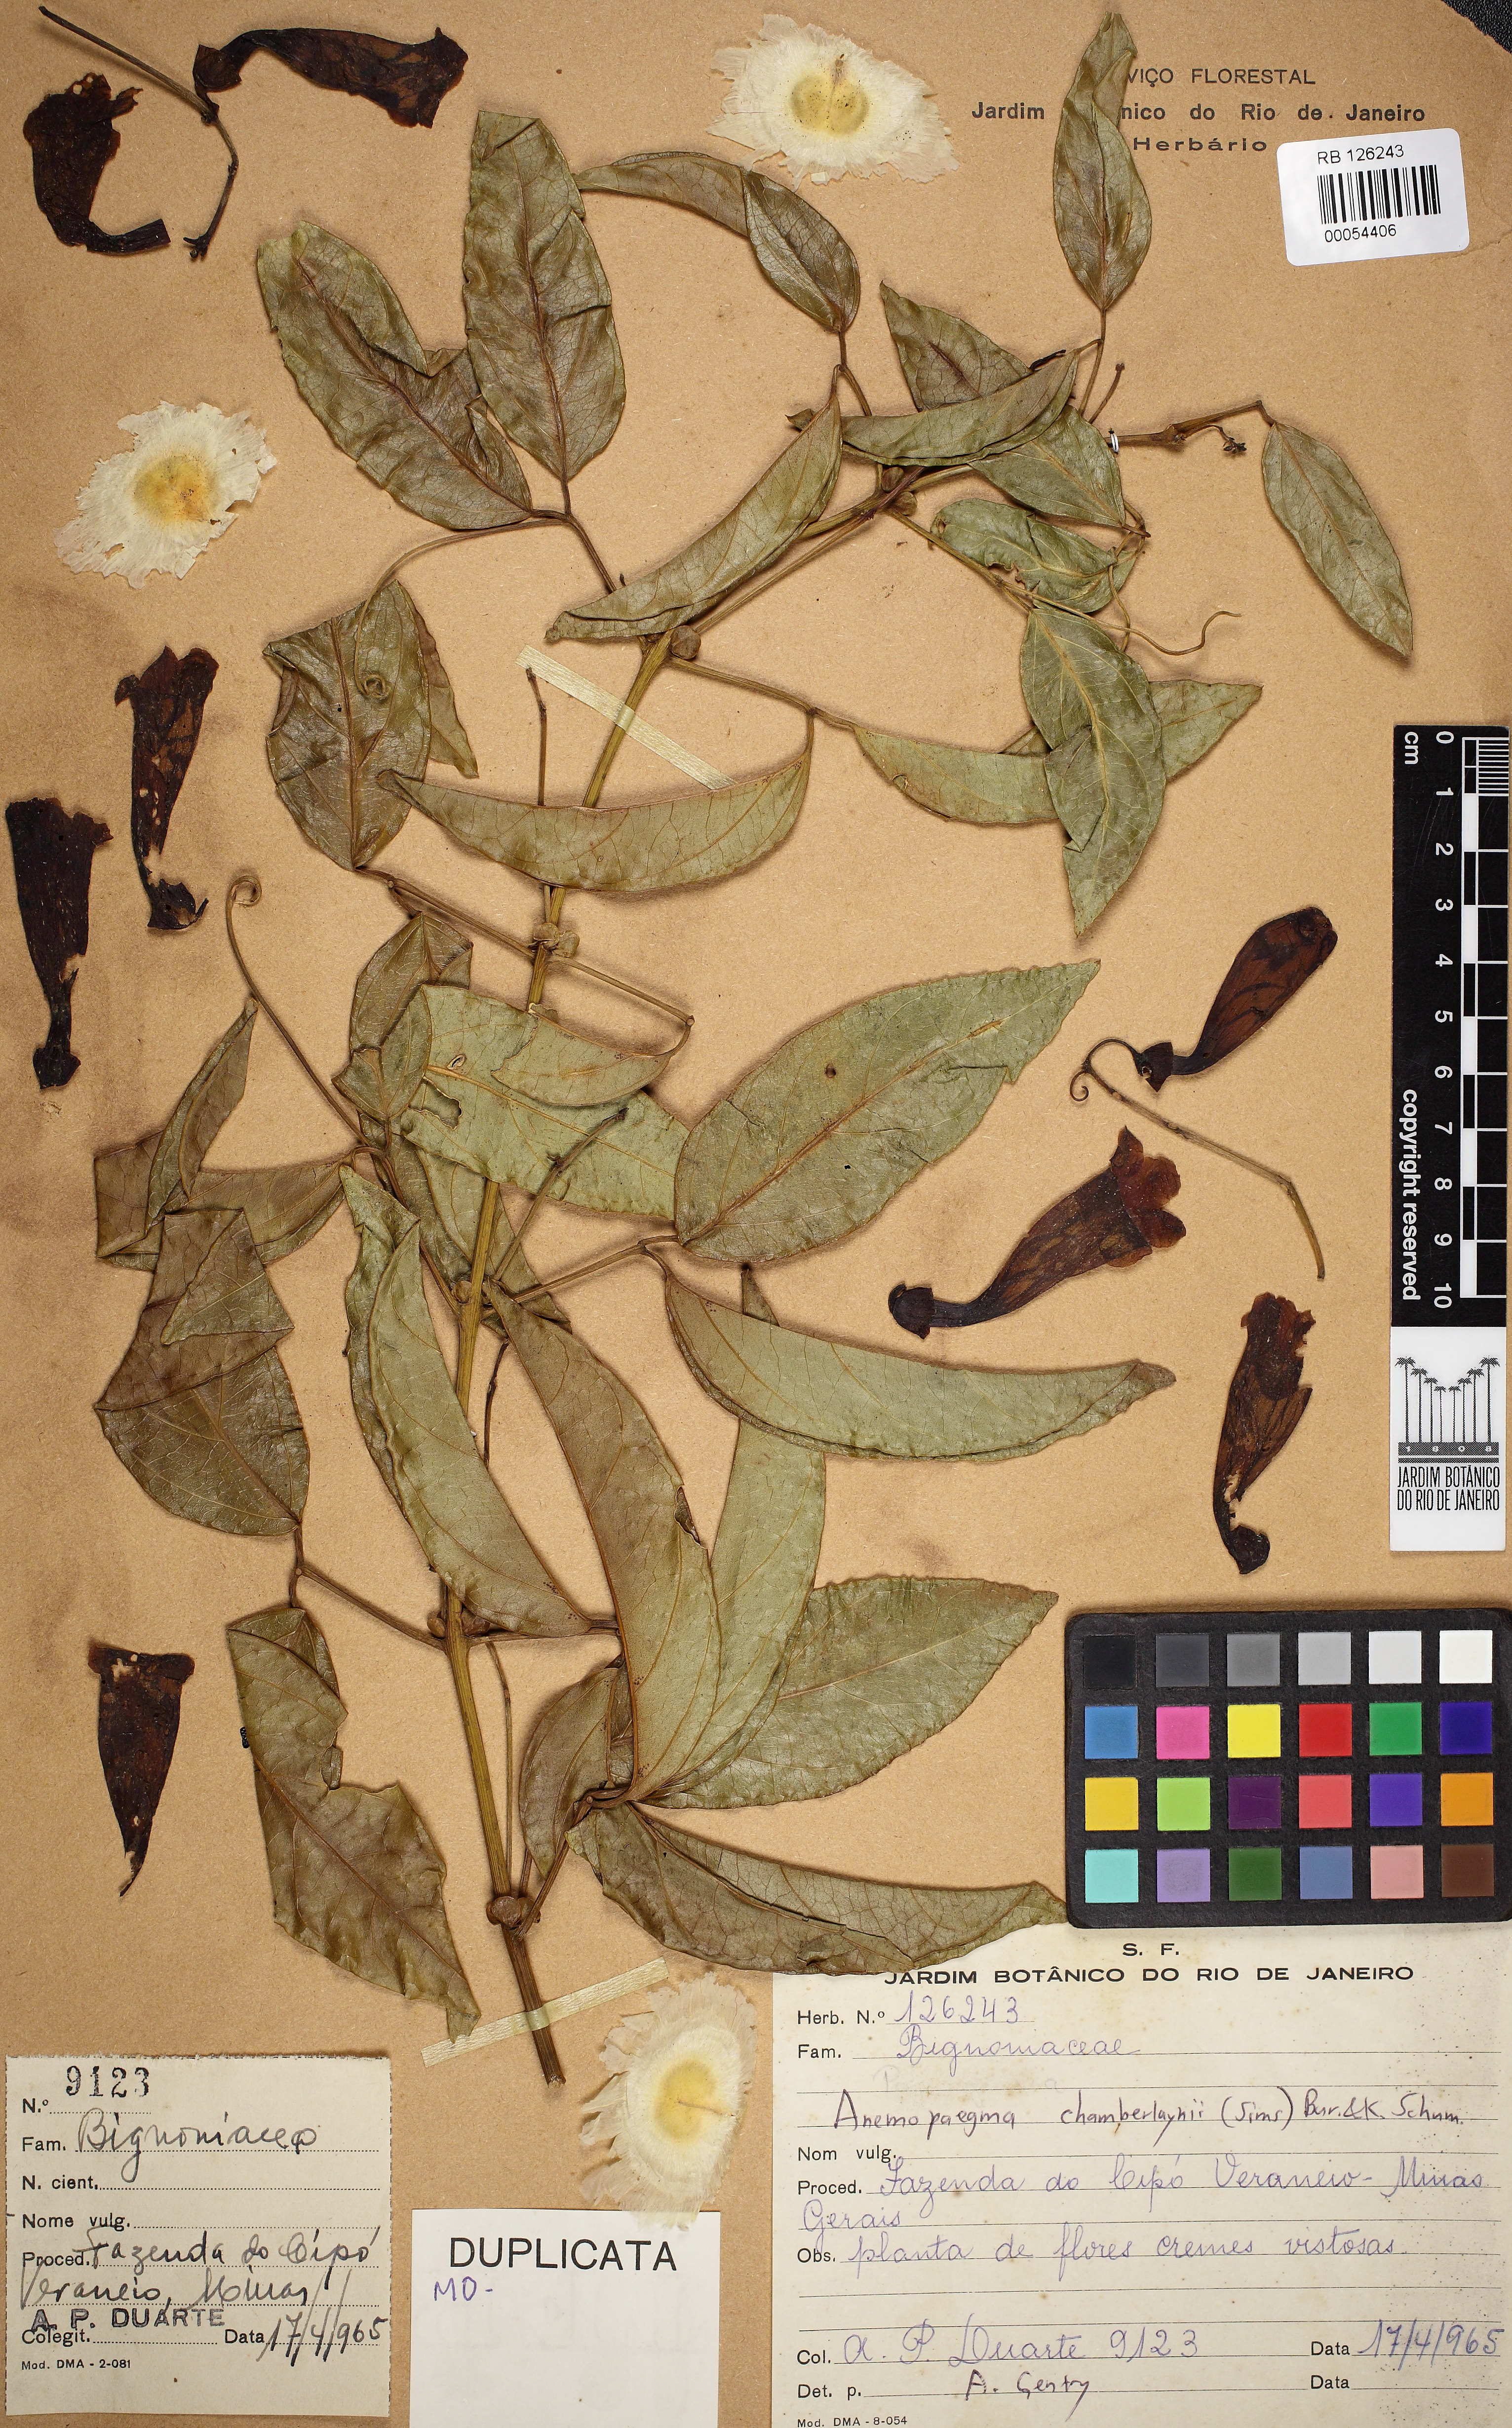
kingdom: Plantae
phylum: Tracheophyta
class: Magnoliopsida
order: Lamiales
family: Bignoniaceae
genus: Anemopaegma
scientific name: Anemopaegma chamberlaynii
